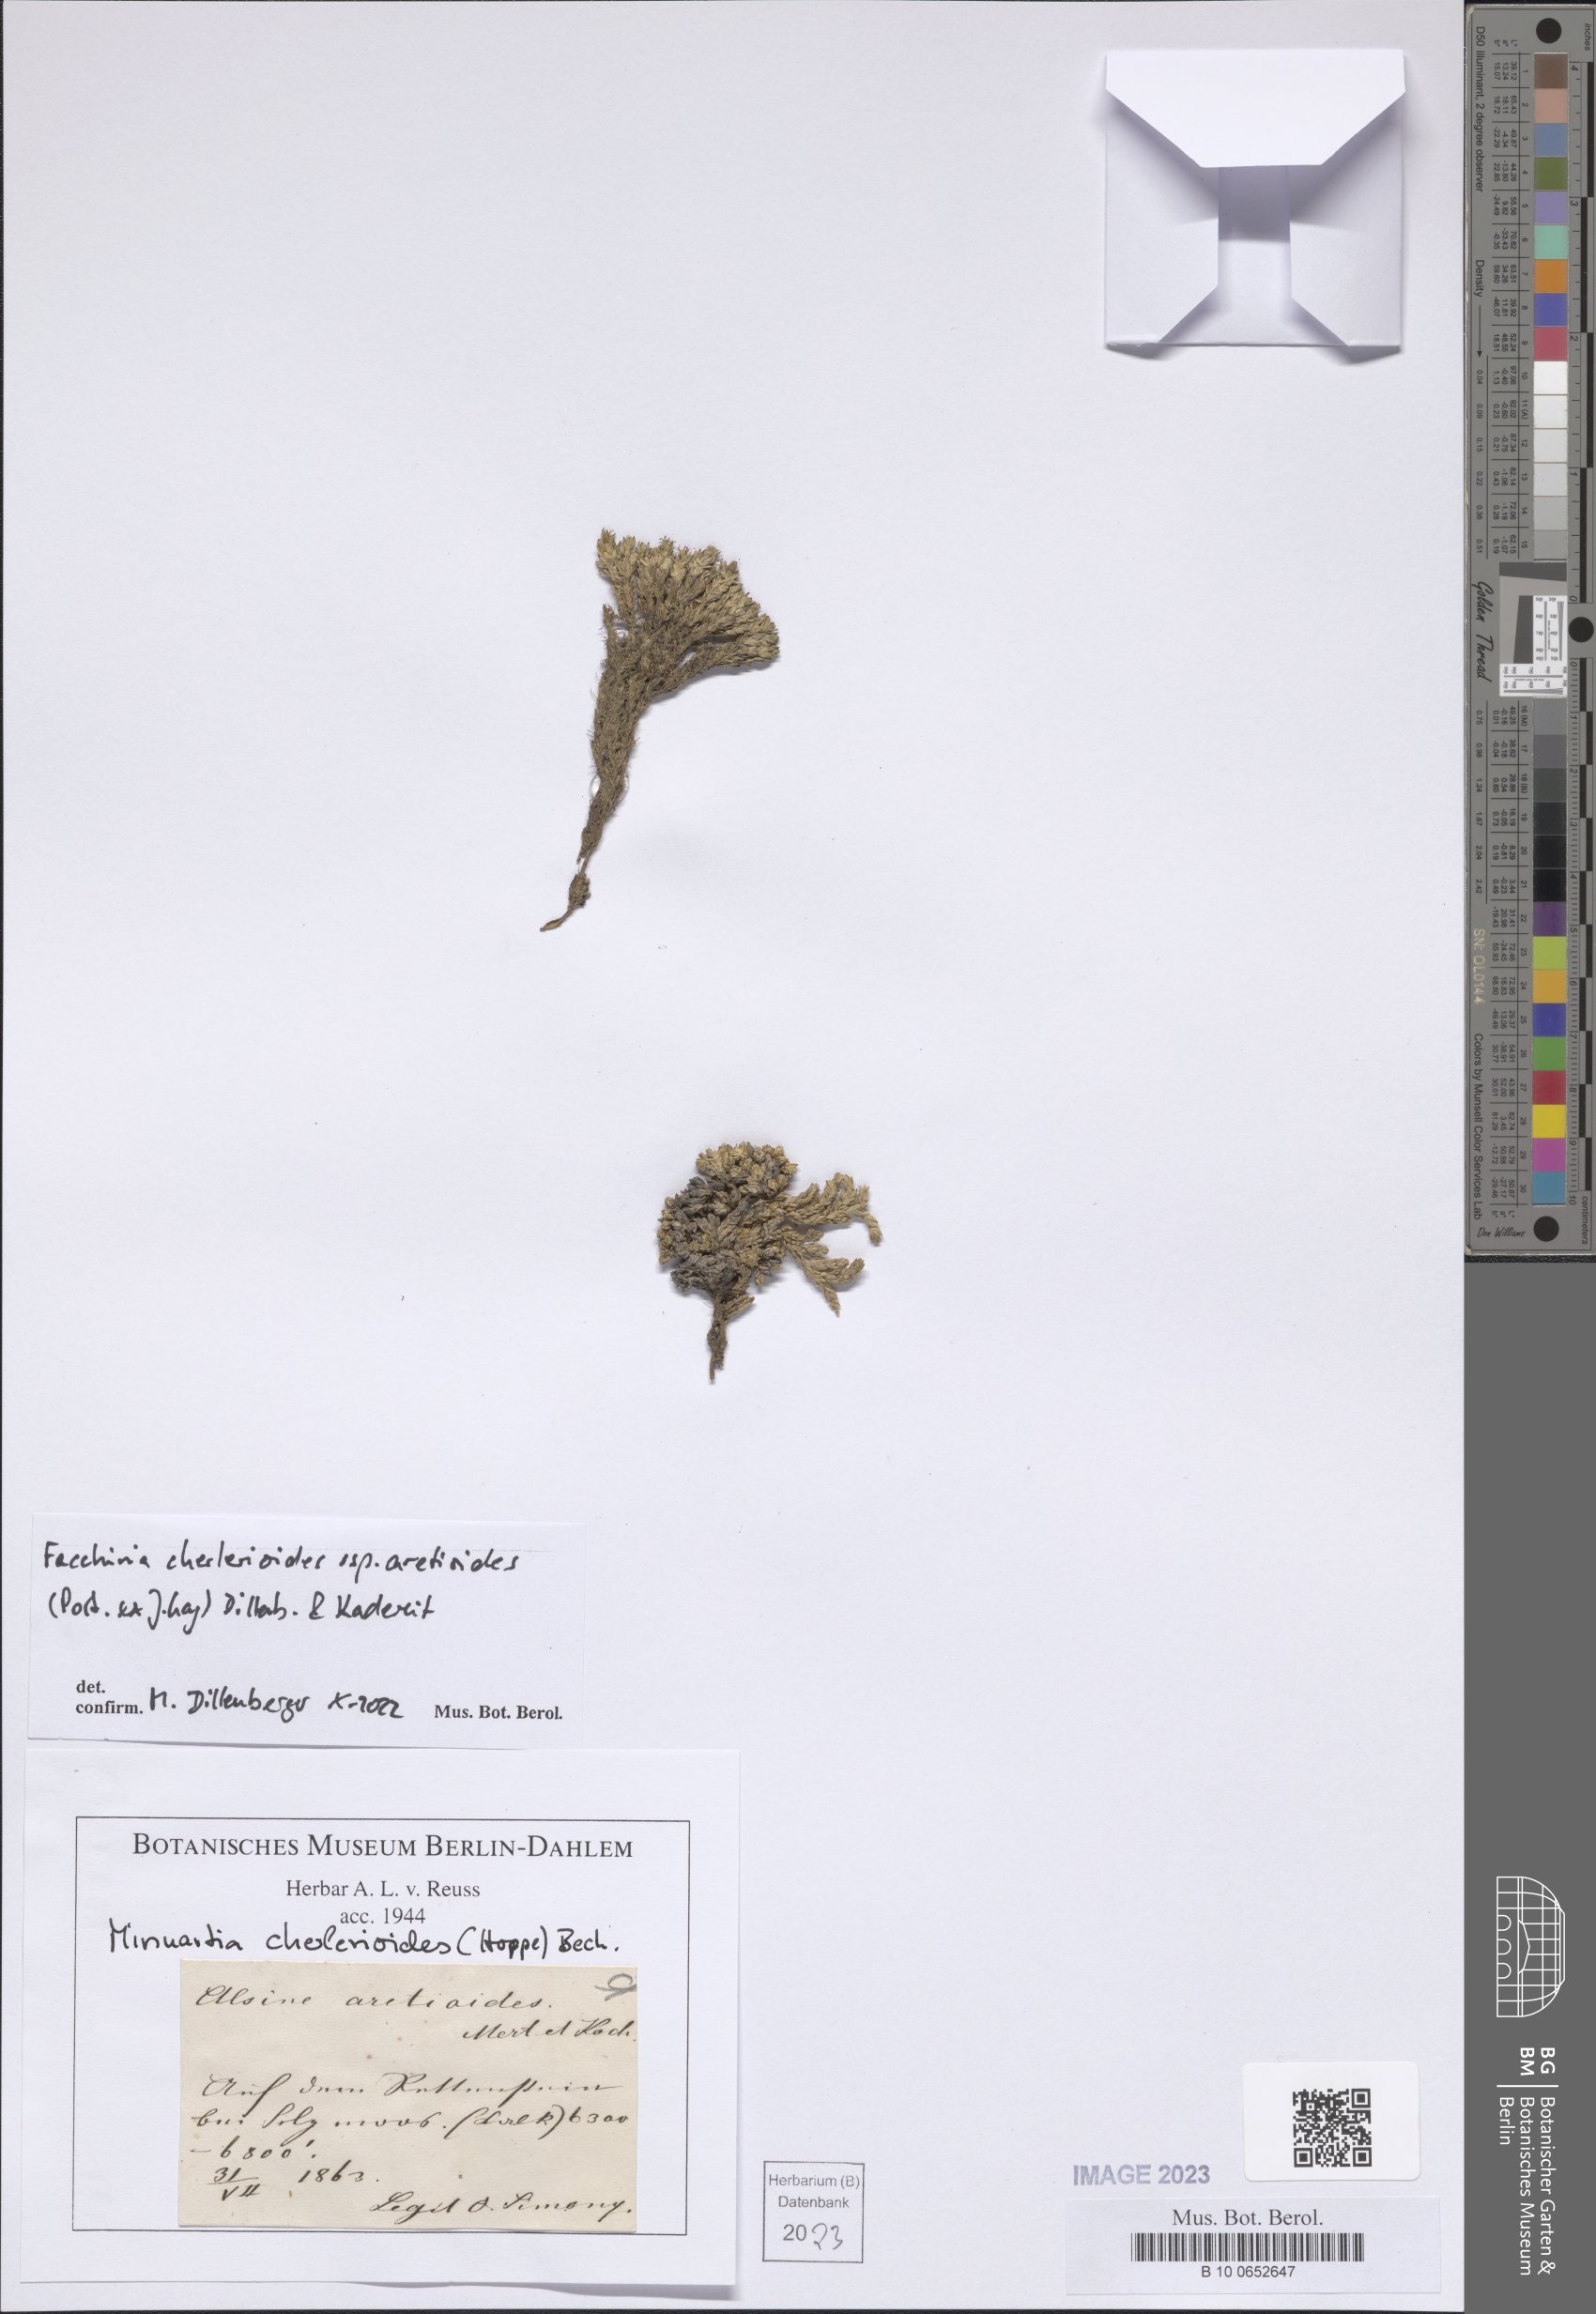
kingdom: Plantae
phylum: Tracheophyta
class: Magnoliopsida
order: Caryophyllales
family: Caryophyllaceae
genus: Facchinia
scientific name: Facchinia cherlerioides
